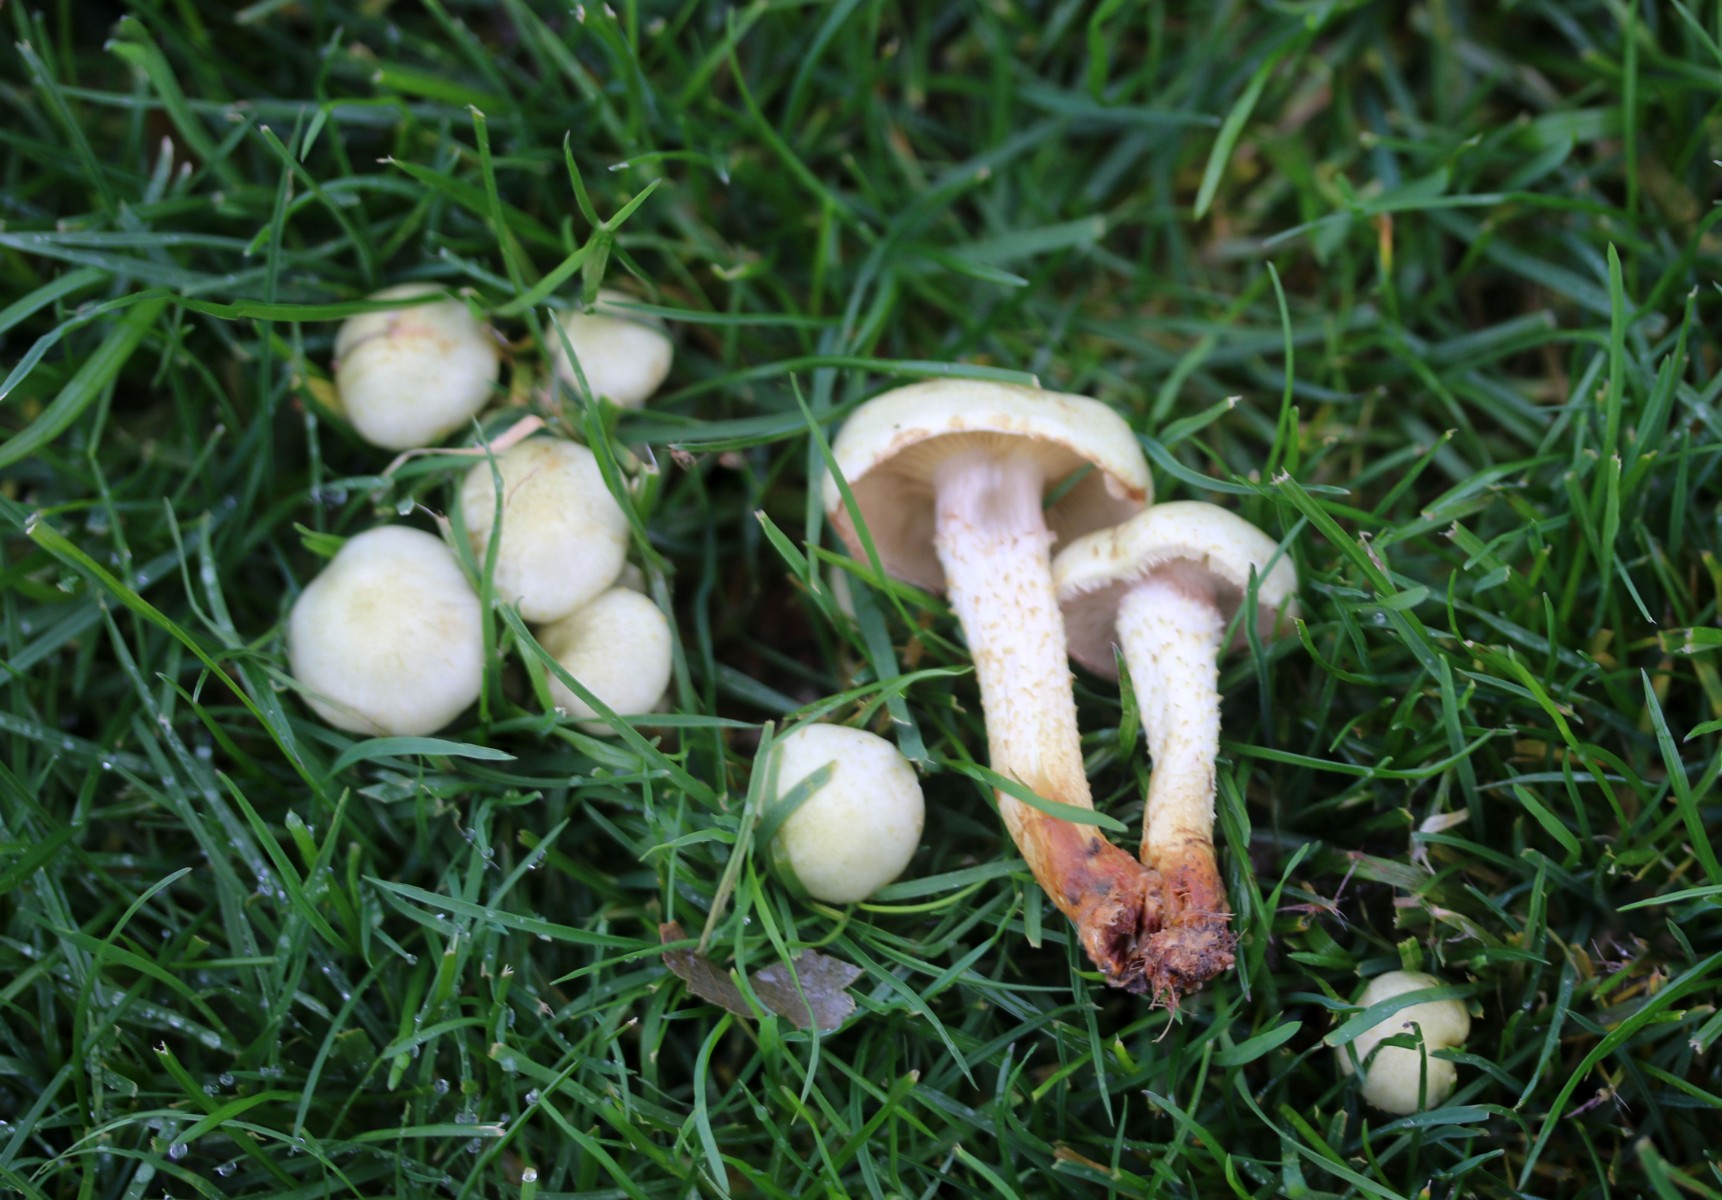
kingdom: Fungi
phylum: Basidiomycota
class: Agaricomycetes
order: Agaricales
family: Strophariaceae
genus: Pholiota
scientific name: Pholiota gummosa
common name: grøngul skælhat
